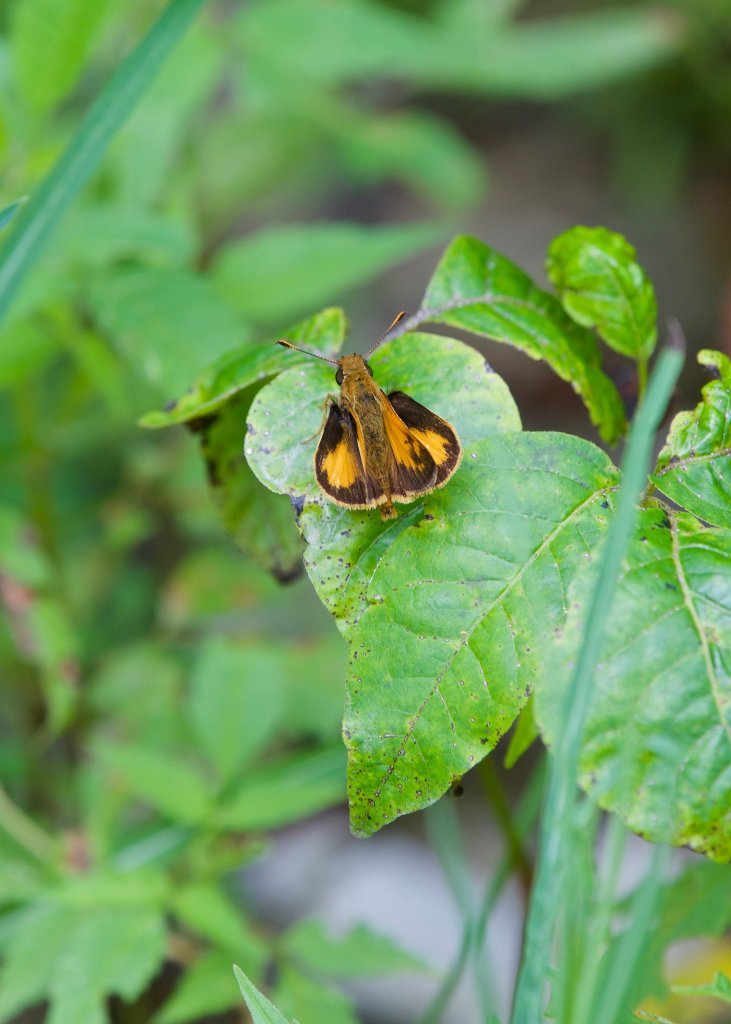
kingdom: Animalia
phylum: Arthropoda
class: Insecta
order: Lepidoptera
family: Hesperiidae
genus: Lon
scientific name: Lon zabulon
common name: Zabulon Skipper
